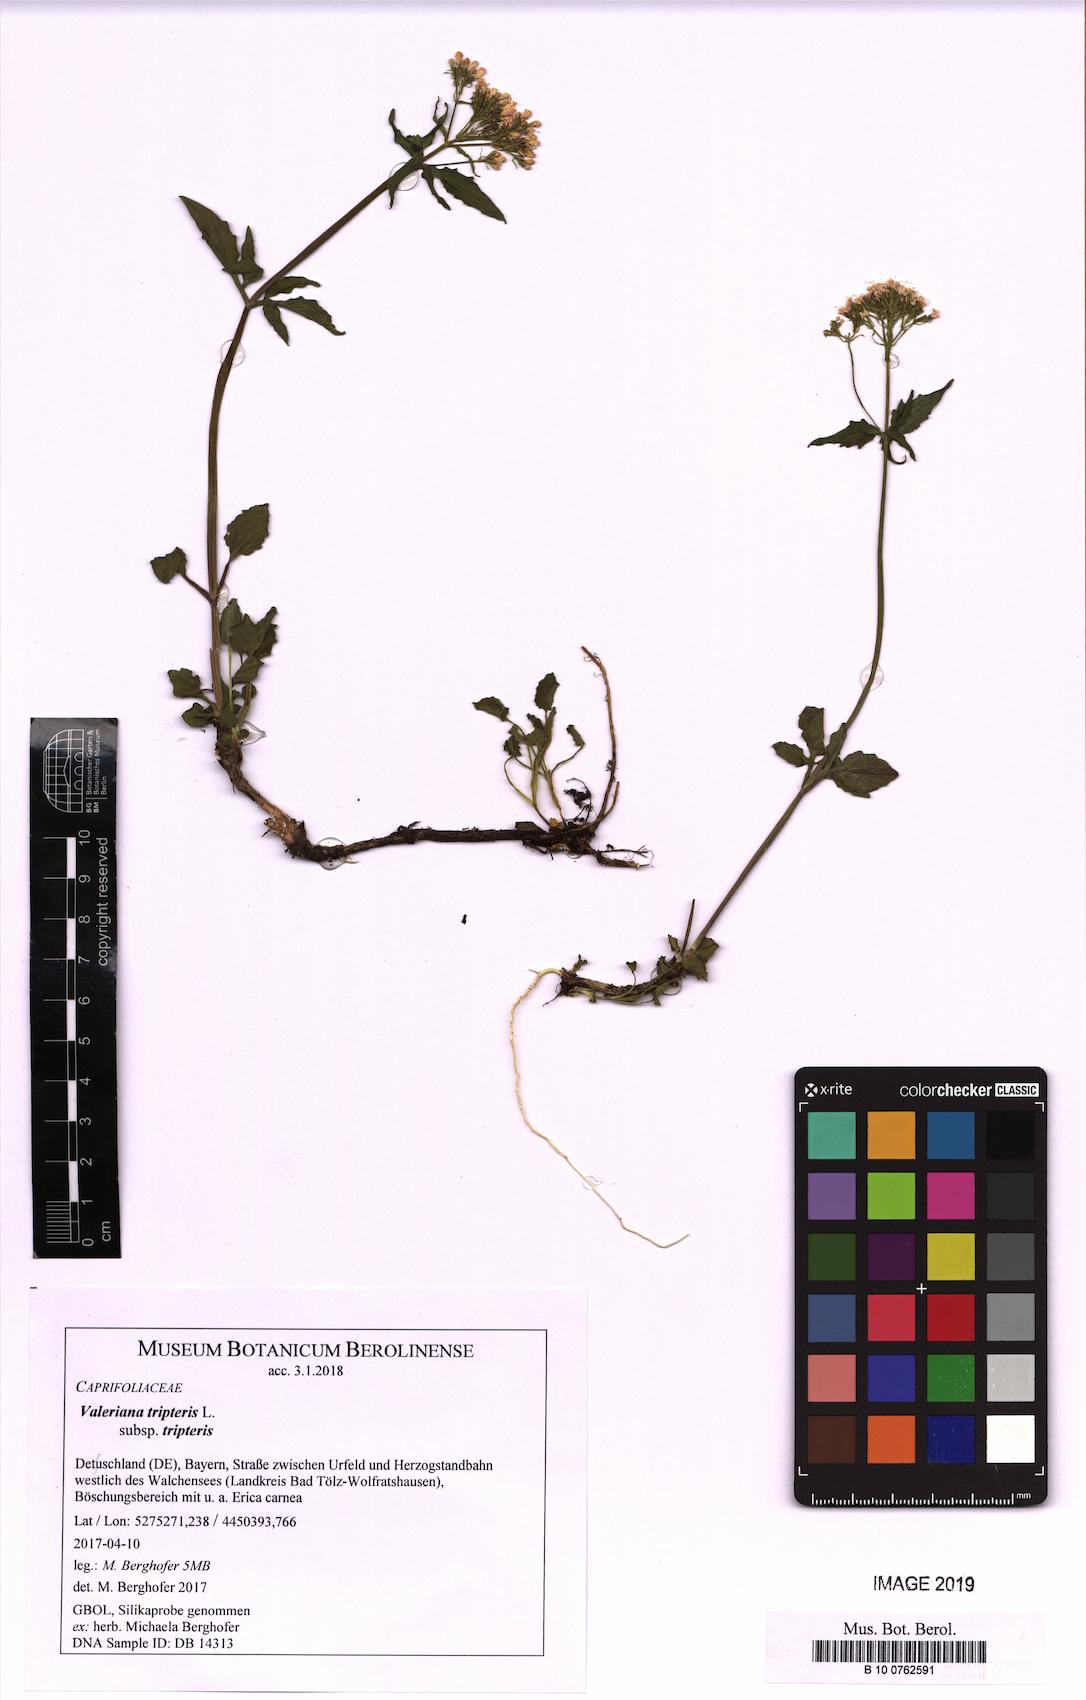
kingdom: Plantae
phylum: Tracheophyta
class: Magnoliopsida
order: Dipsacales
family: Caprifoliaceae
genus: Valeriana
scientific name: Valeriana tripteris
